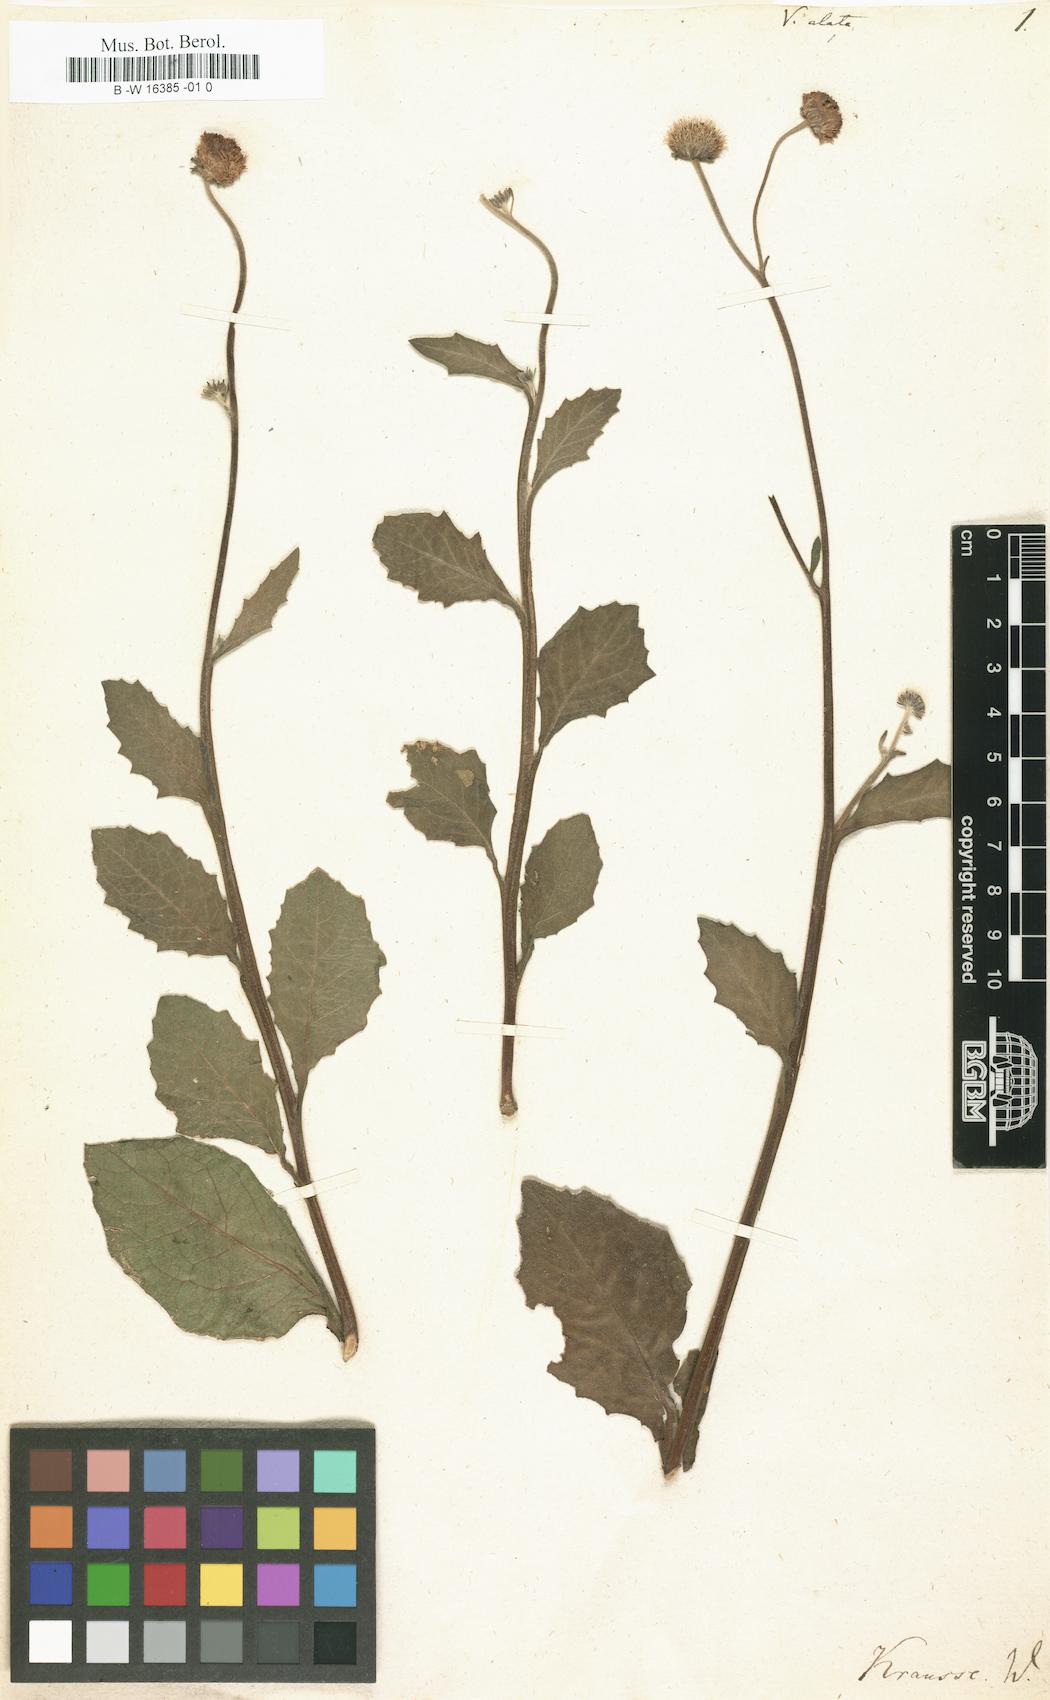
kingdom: Plantae
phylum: Tracheophyta
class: Magnoliopsida
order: Asterales
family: Asteraceae
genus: Verbesina
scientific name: Verbesina alata
